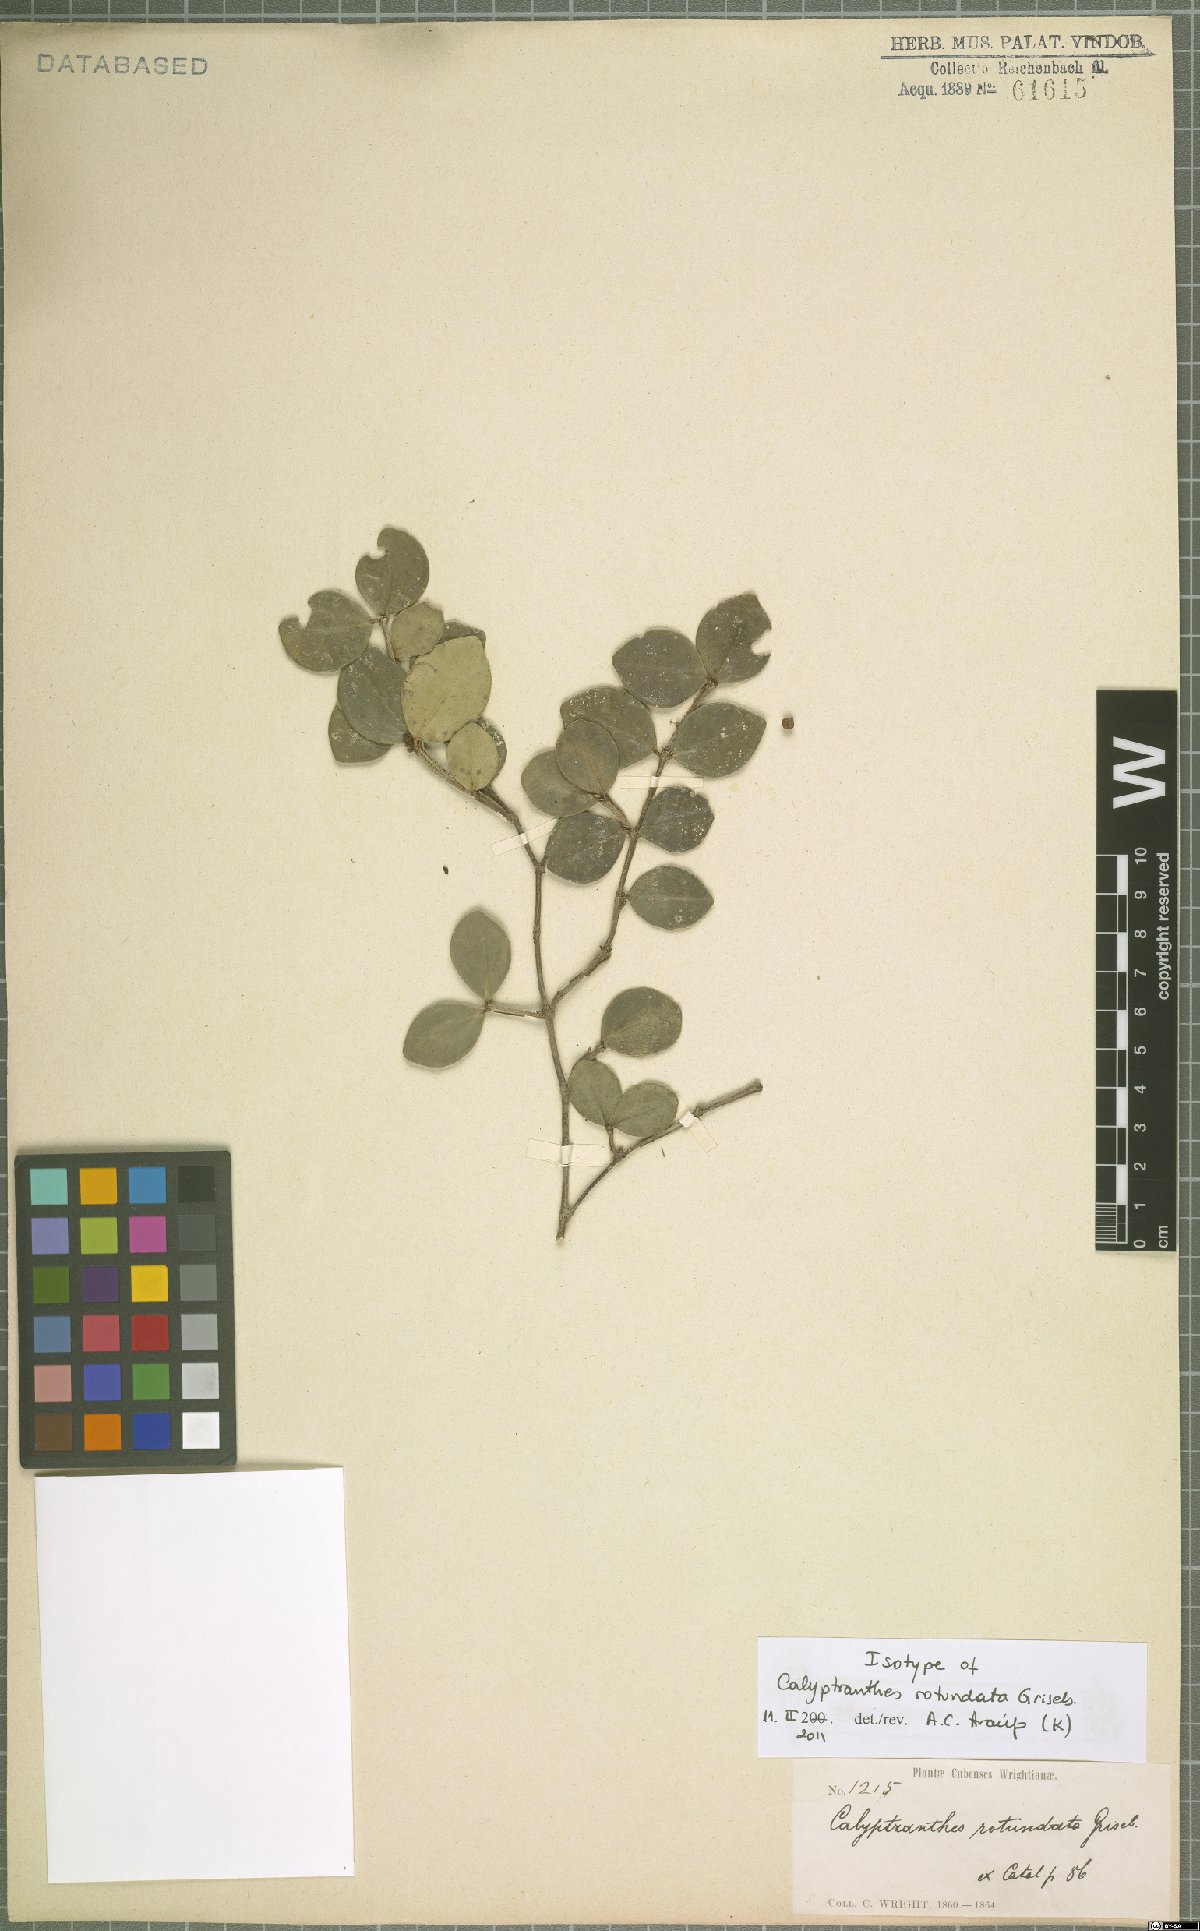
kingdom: Plantae
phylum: Tracheophyta
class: Magnoliopsida
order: Myrtales
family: Myrtaceae
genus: Myrcia
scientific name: Myrcia circumdata
